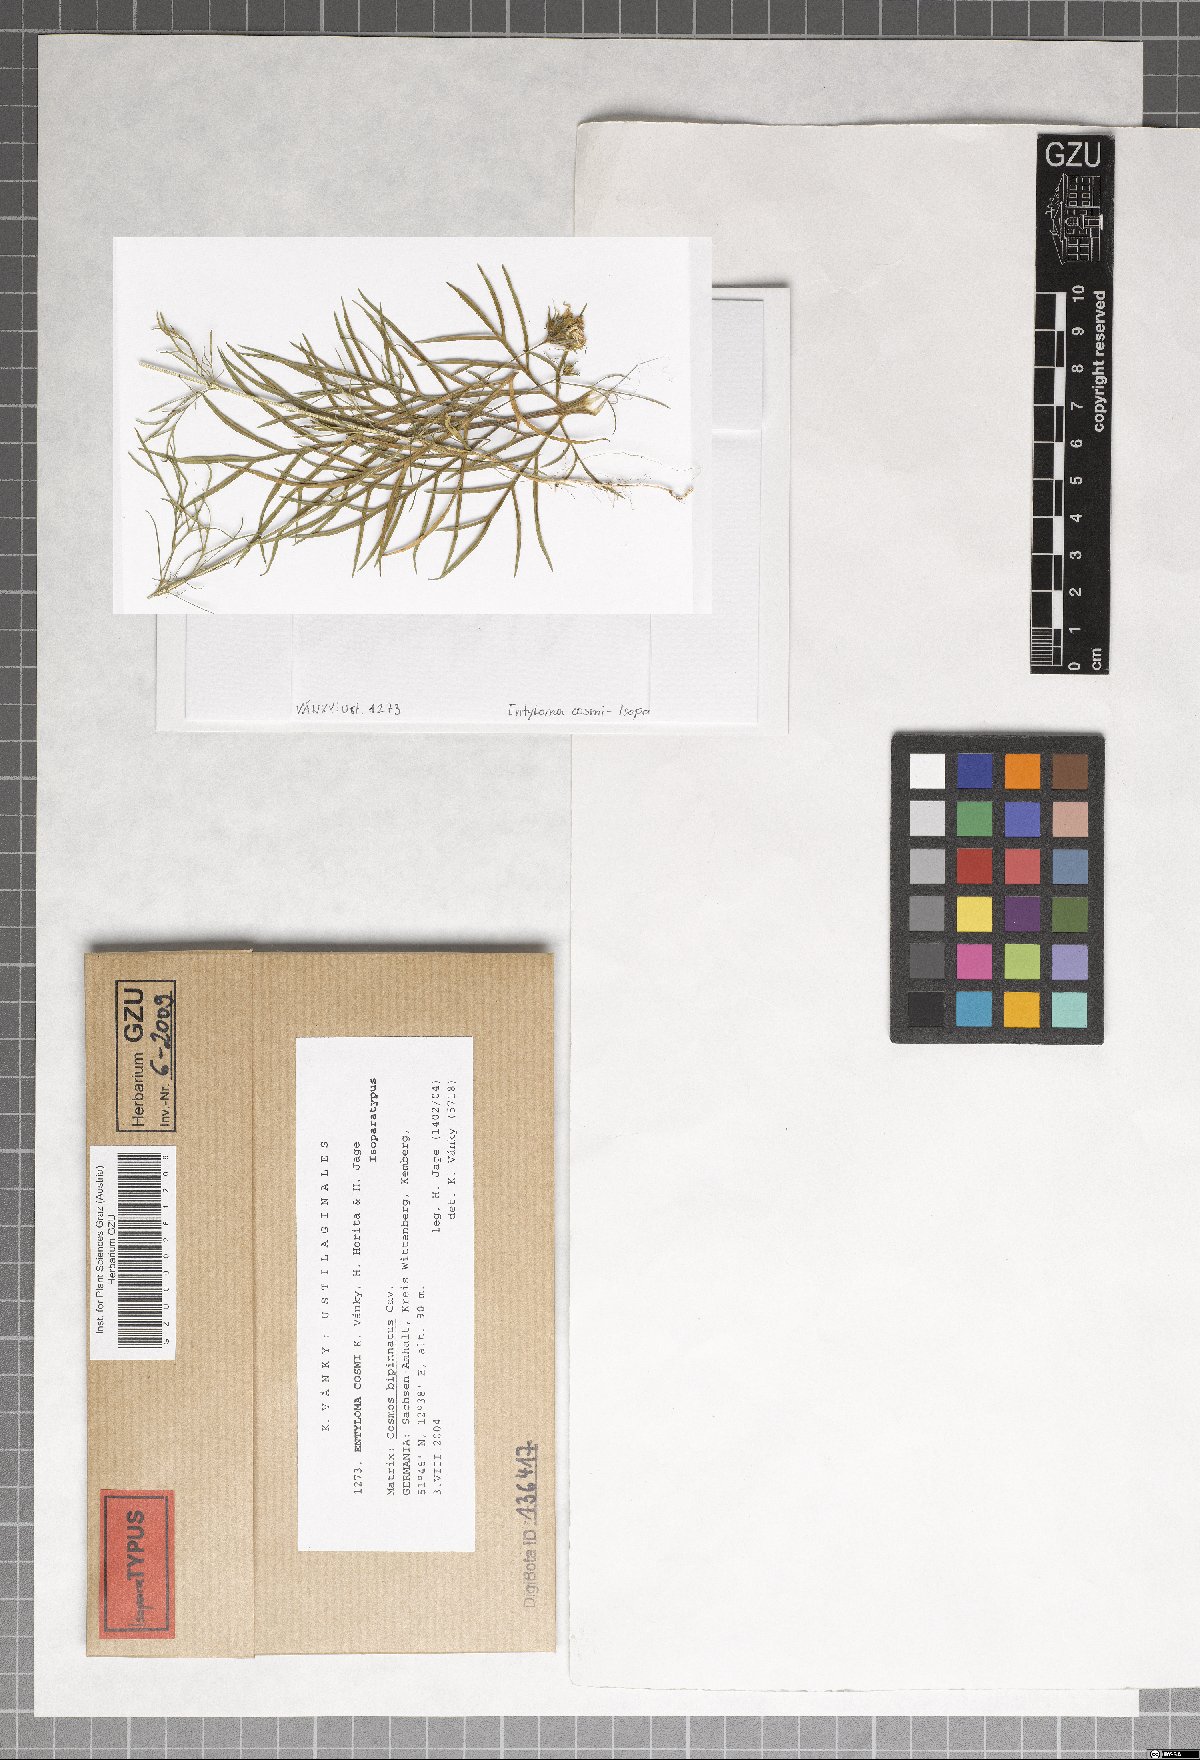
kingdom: Fungi
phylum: Basidiomycota
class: Exobasidiomycetes
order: Entylomatales
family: Entylomataceae
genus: Entyloma
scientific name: Entyloma cosmi
